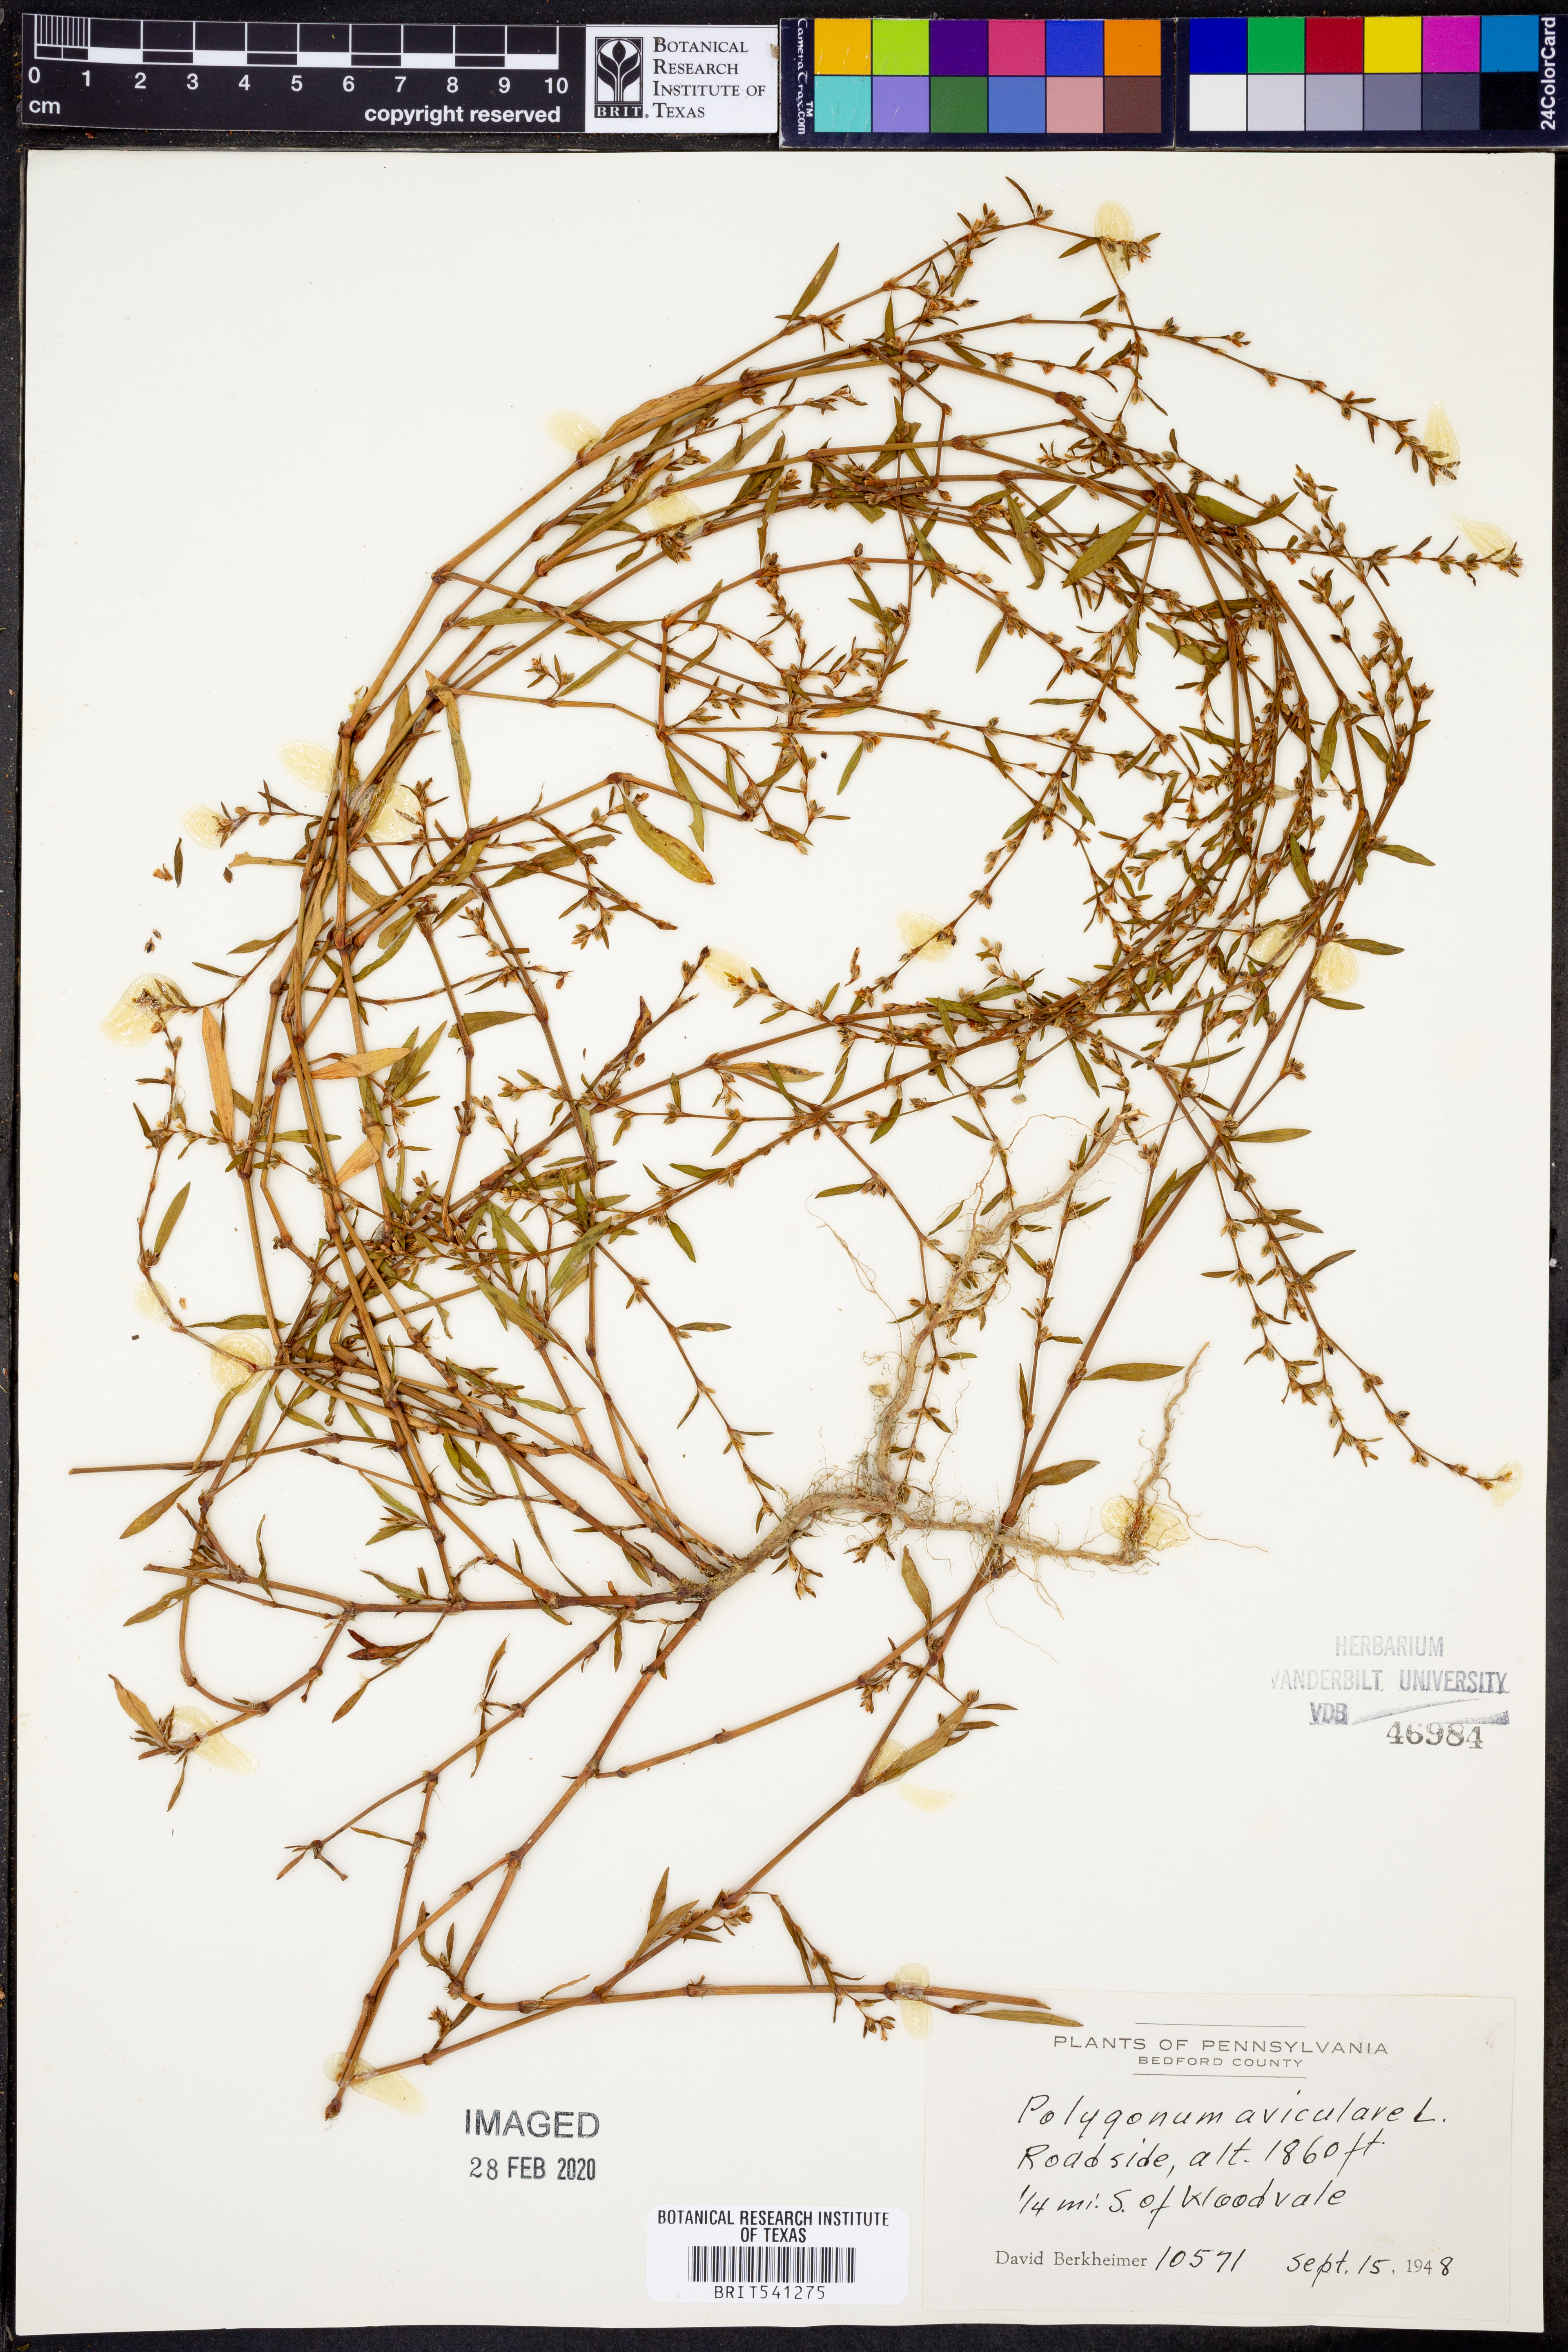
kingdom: Plantae
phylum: Tracheophyta
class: Magnoliopsida
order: Caryophyllales
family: Polygonaceae
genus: Polygonum
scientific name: Polygonum aviculare
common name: Prostrate knotweed
